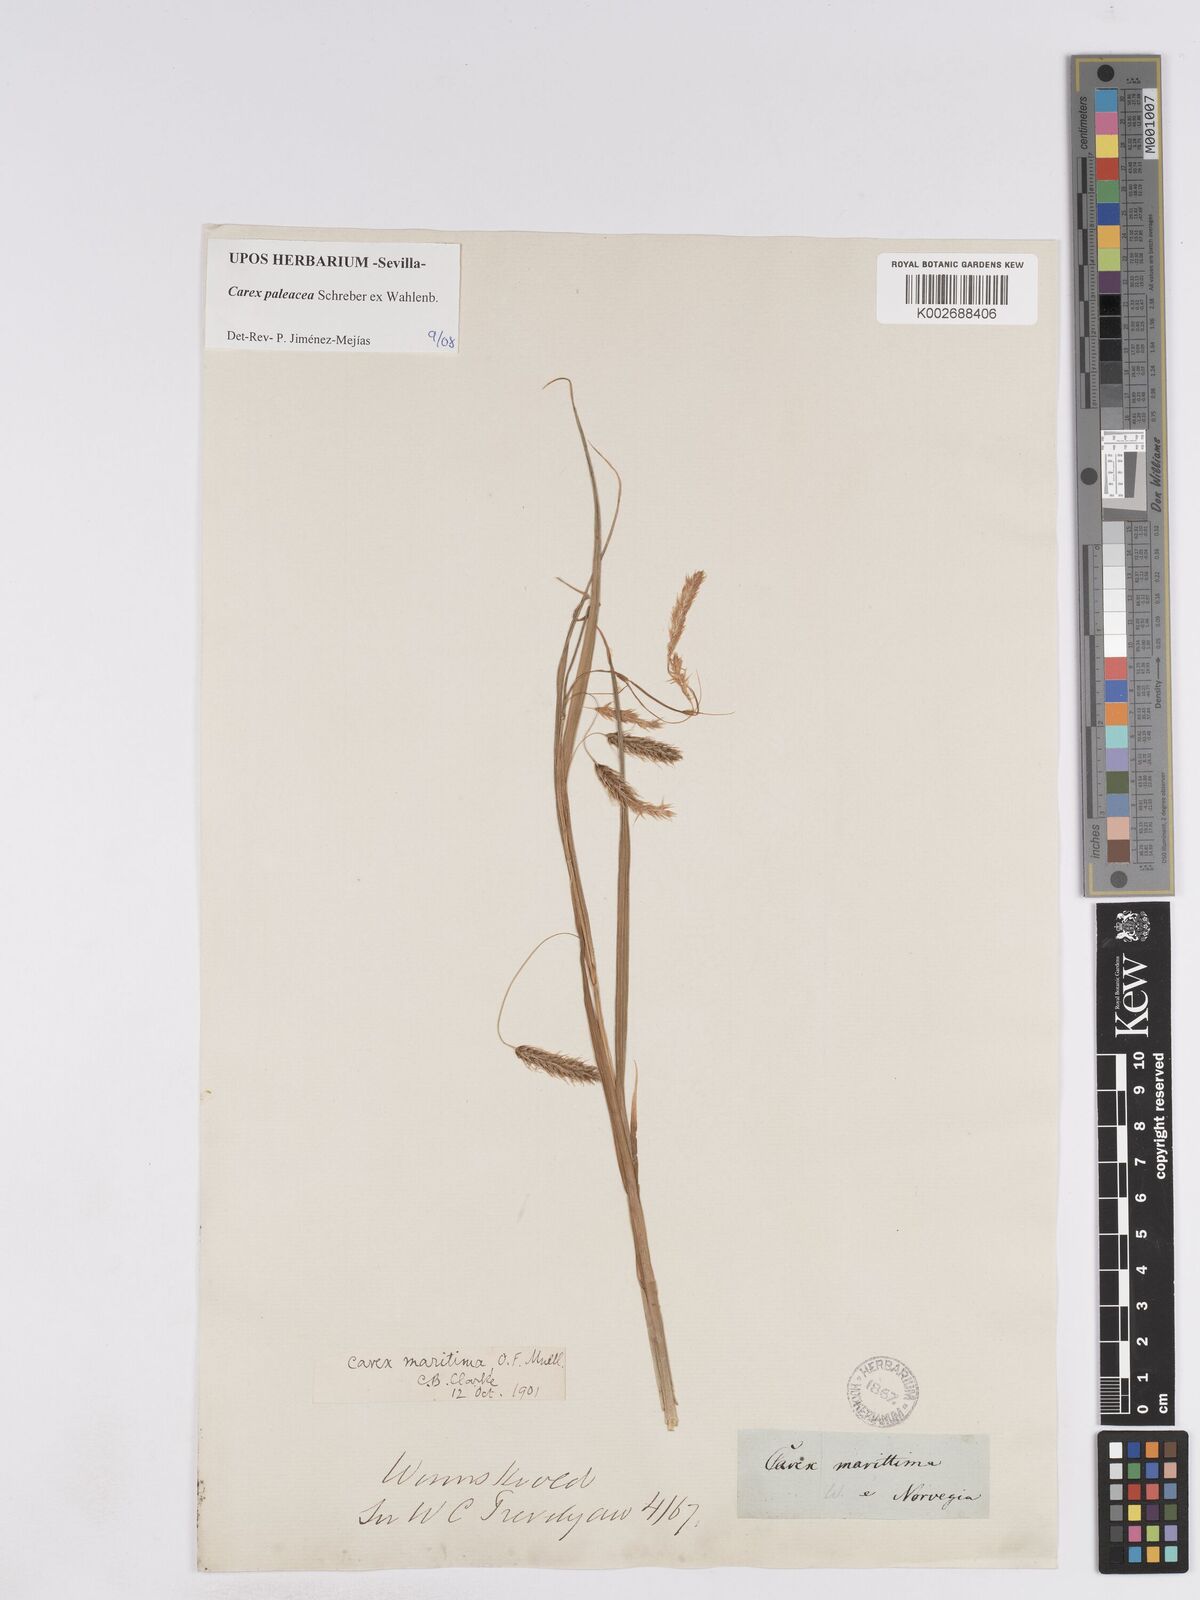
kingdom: Plantae
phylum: Tracheophyta
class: Liliopsida
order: Poales
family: Cyperaceae
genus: Carex
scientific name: Carex paleacea
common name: Chaffy sedge
